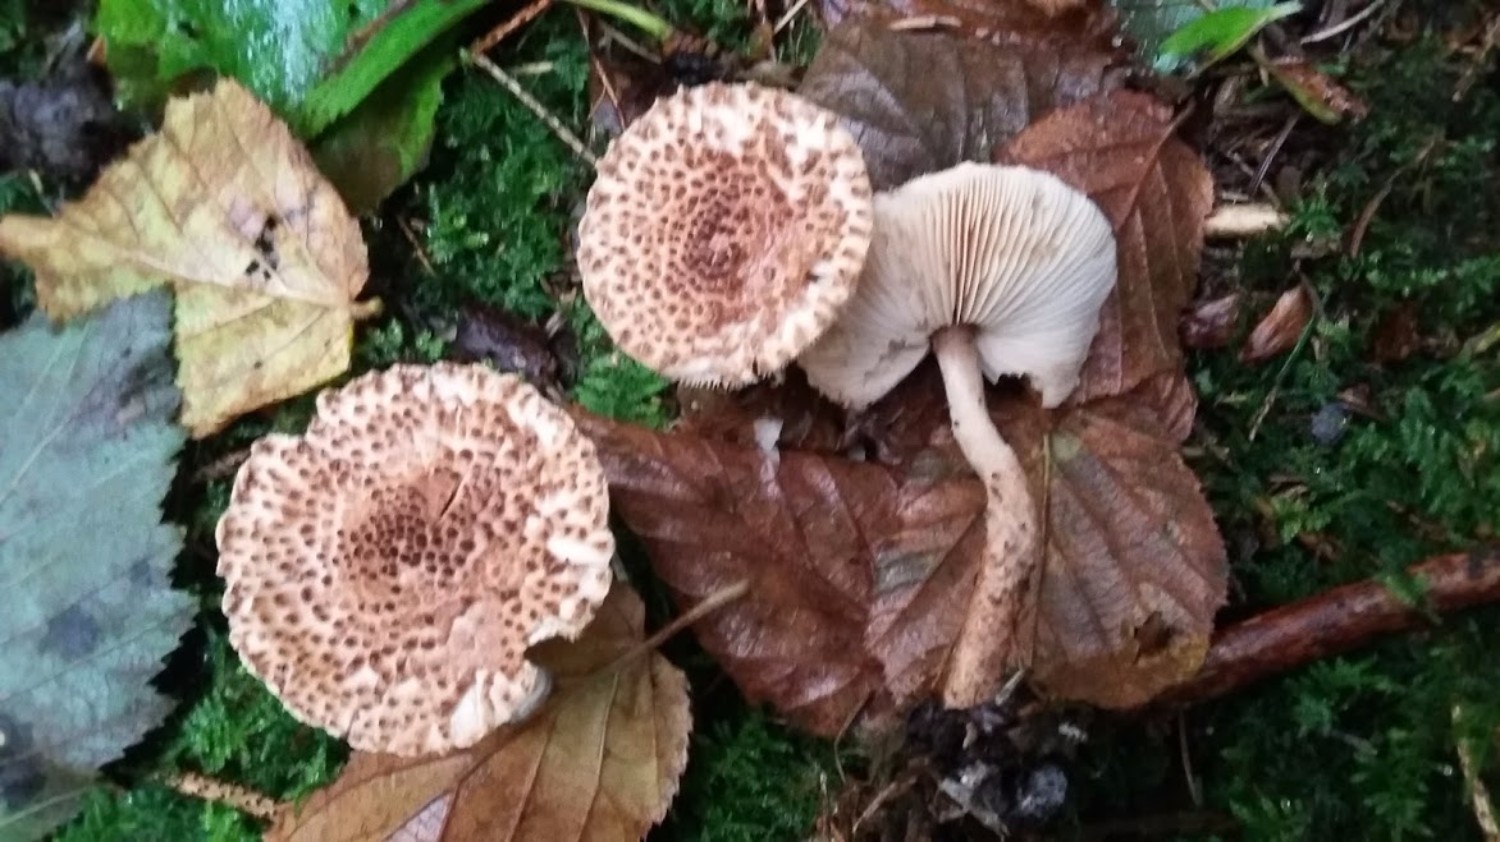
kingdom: Fungi
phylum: Basidiomycota
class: Agaricomycetes
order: Agaricales
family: Agaricaceae
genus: Echinoderma
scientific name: Echinoderma
